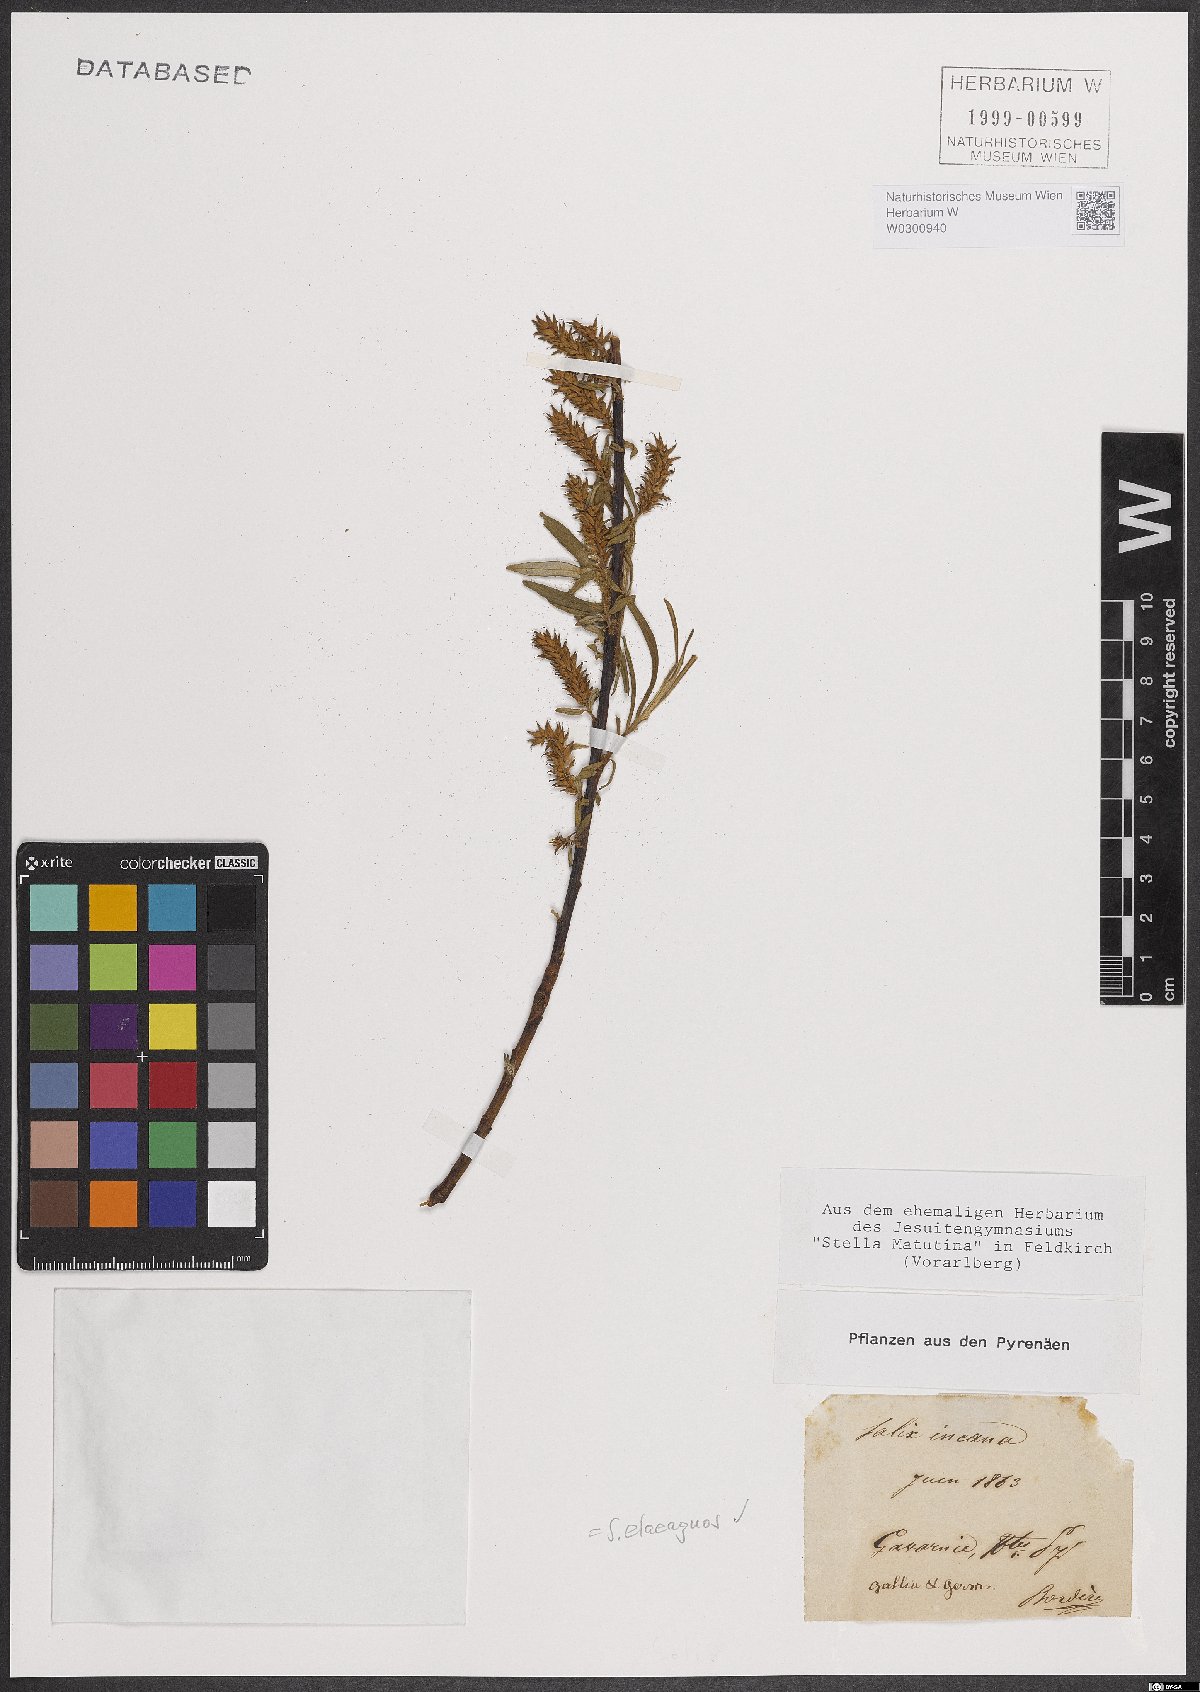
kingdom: Plantae
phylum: Tracheophyta
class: Magnoliopsida
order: Malpighiales
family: Salicaceae
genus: Salix
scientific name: Salix eleagnos
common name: Elaeagnus willow
